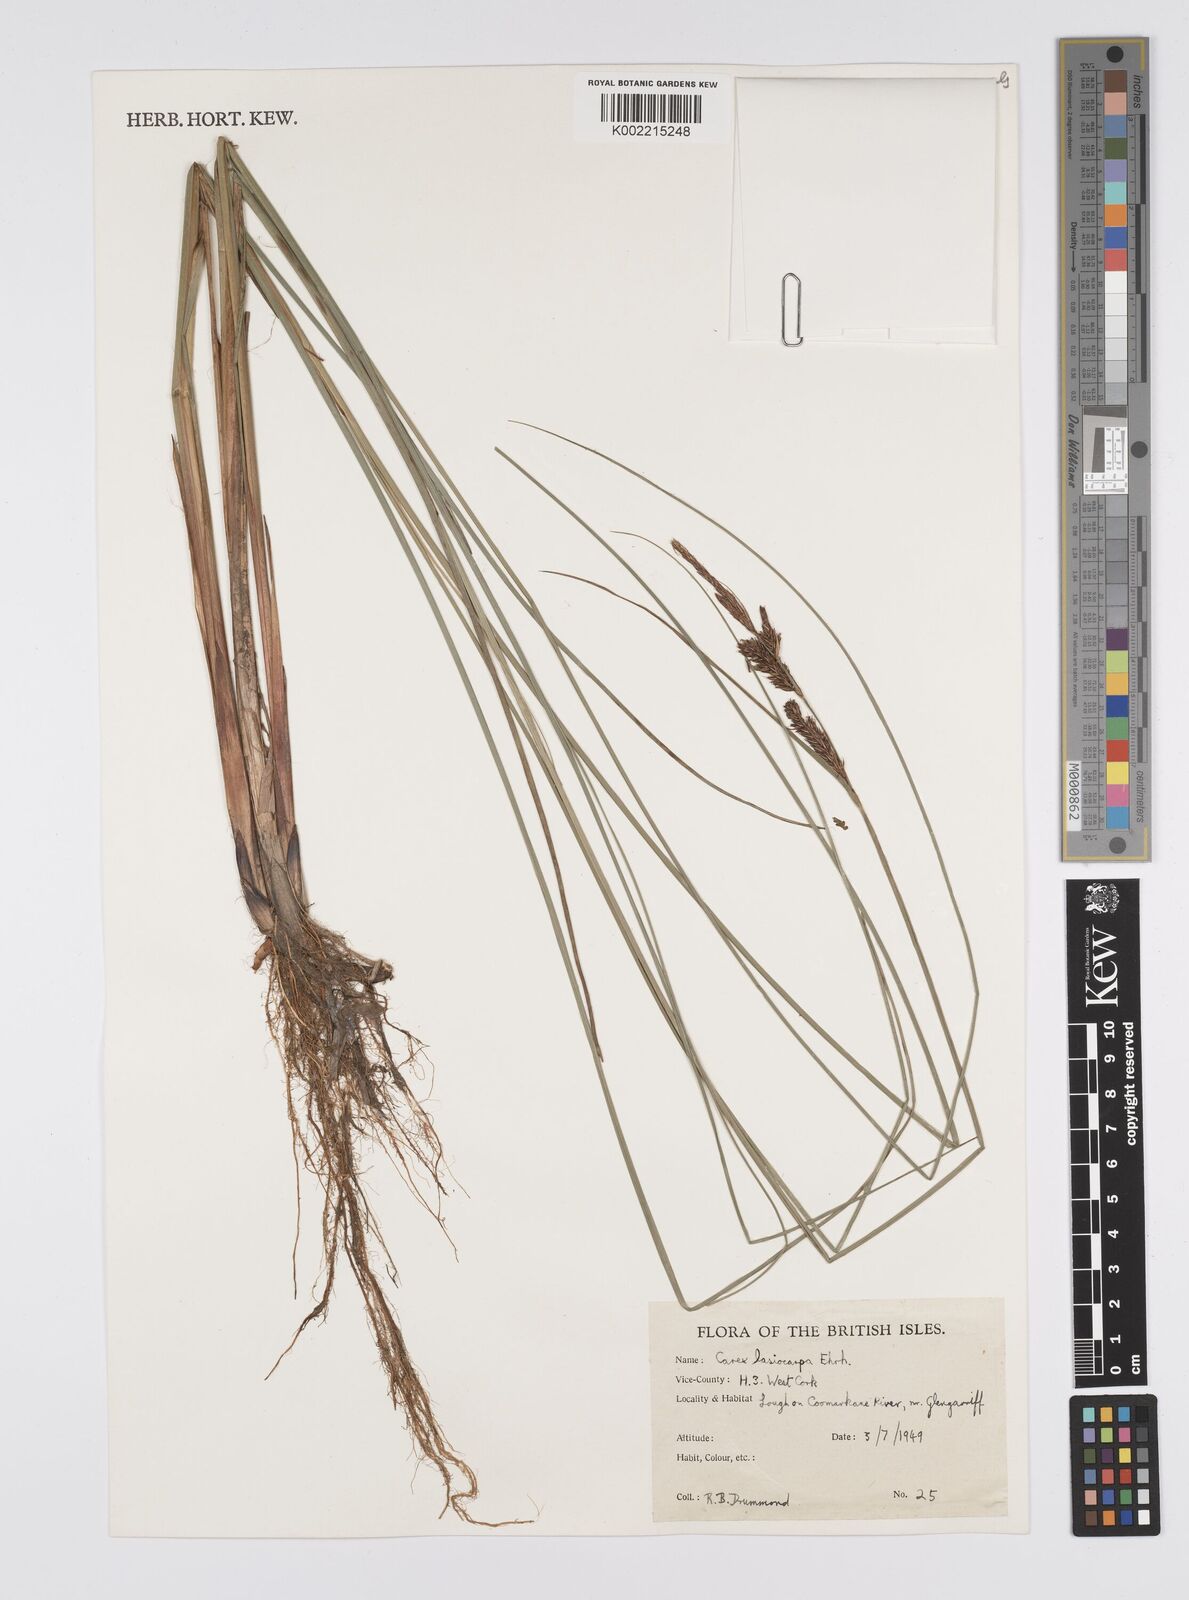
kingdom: Plantae
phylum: Tracheophyta
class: Liliopsida
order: Poales
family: Cyperaceae
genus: Carex
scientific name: Carex lasiocarpa
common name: Slender sedge
